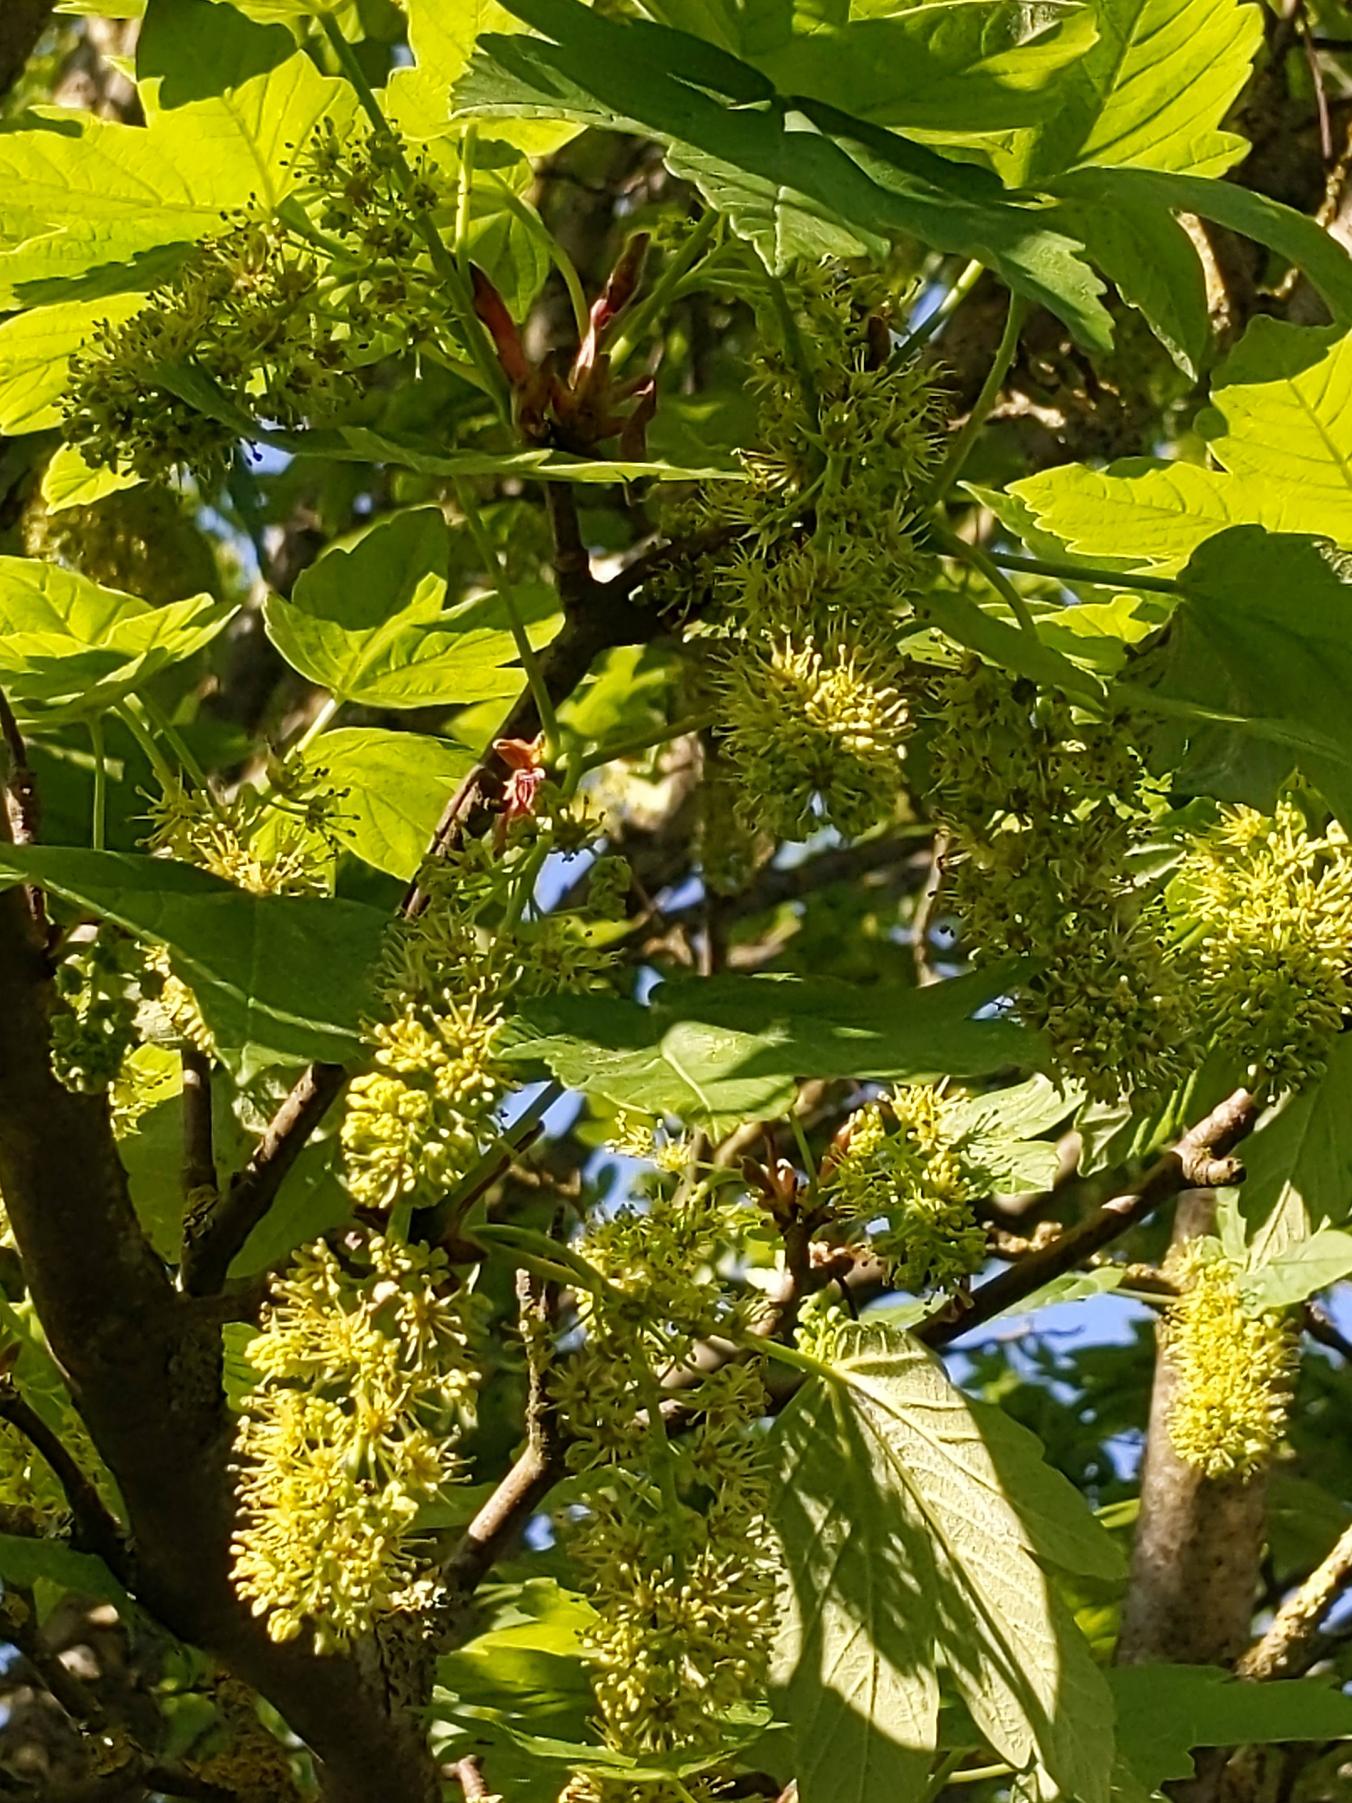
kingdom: Plantae
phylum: Tracheophyta
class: Magnoliopsida
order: Sapindales
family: Sapindaceae
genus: Acer
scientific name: Acer pseudoplatanus
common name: Ahorn
